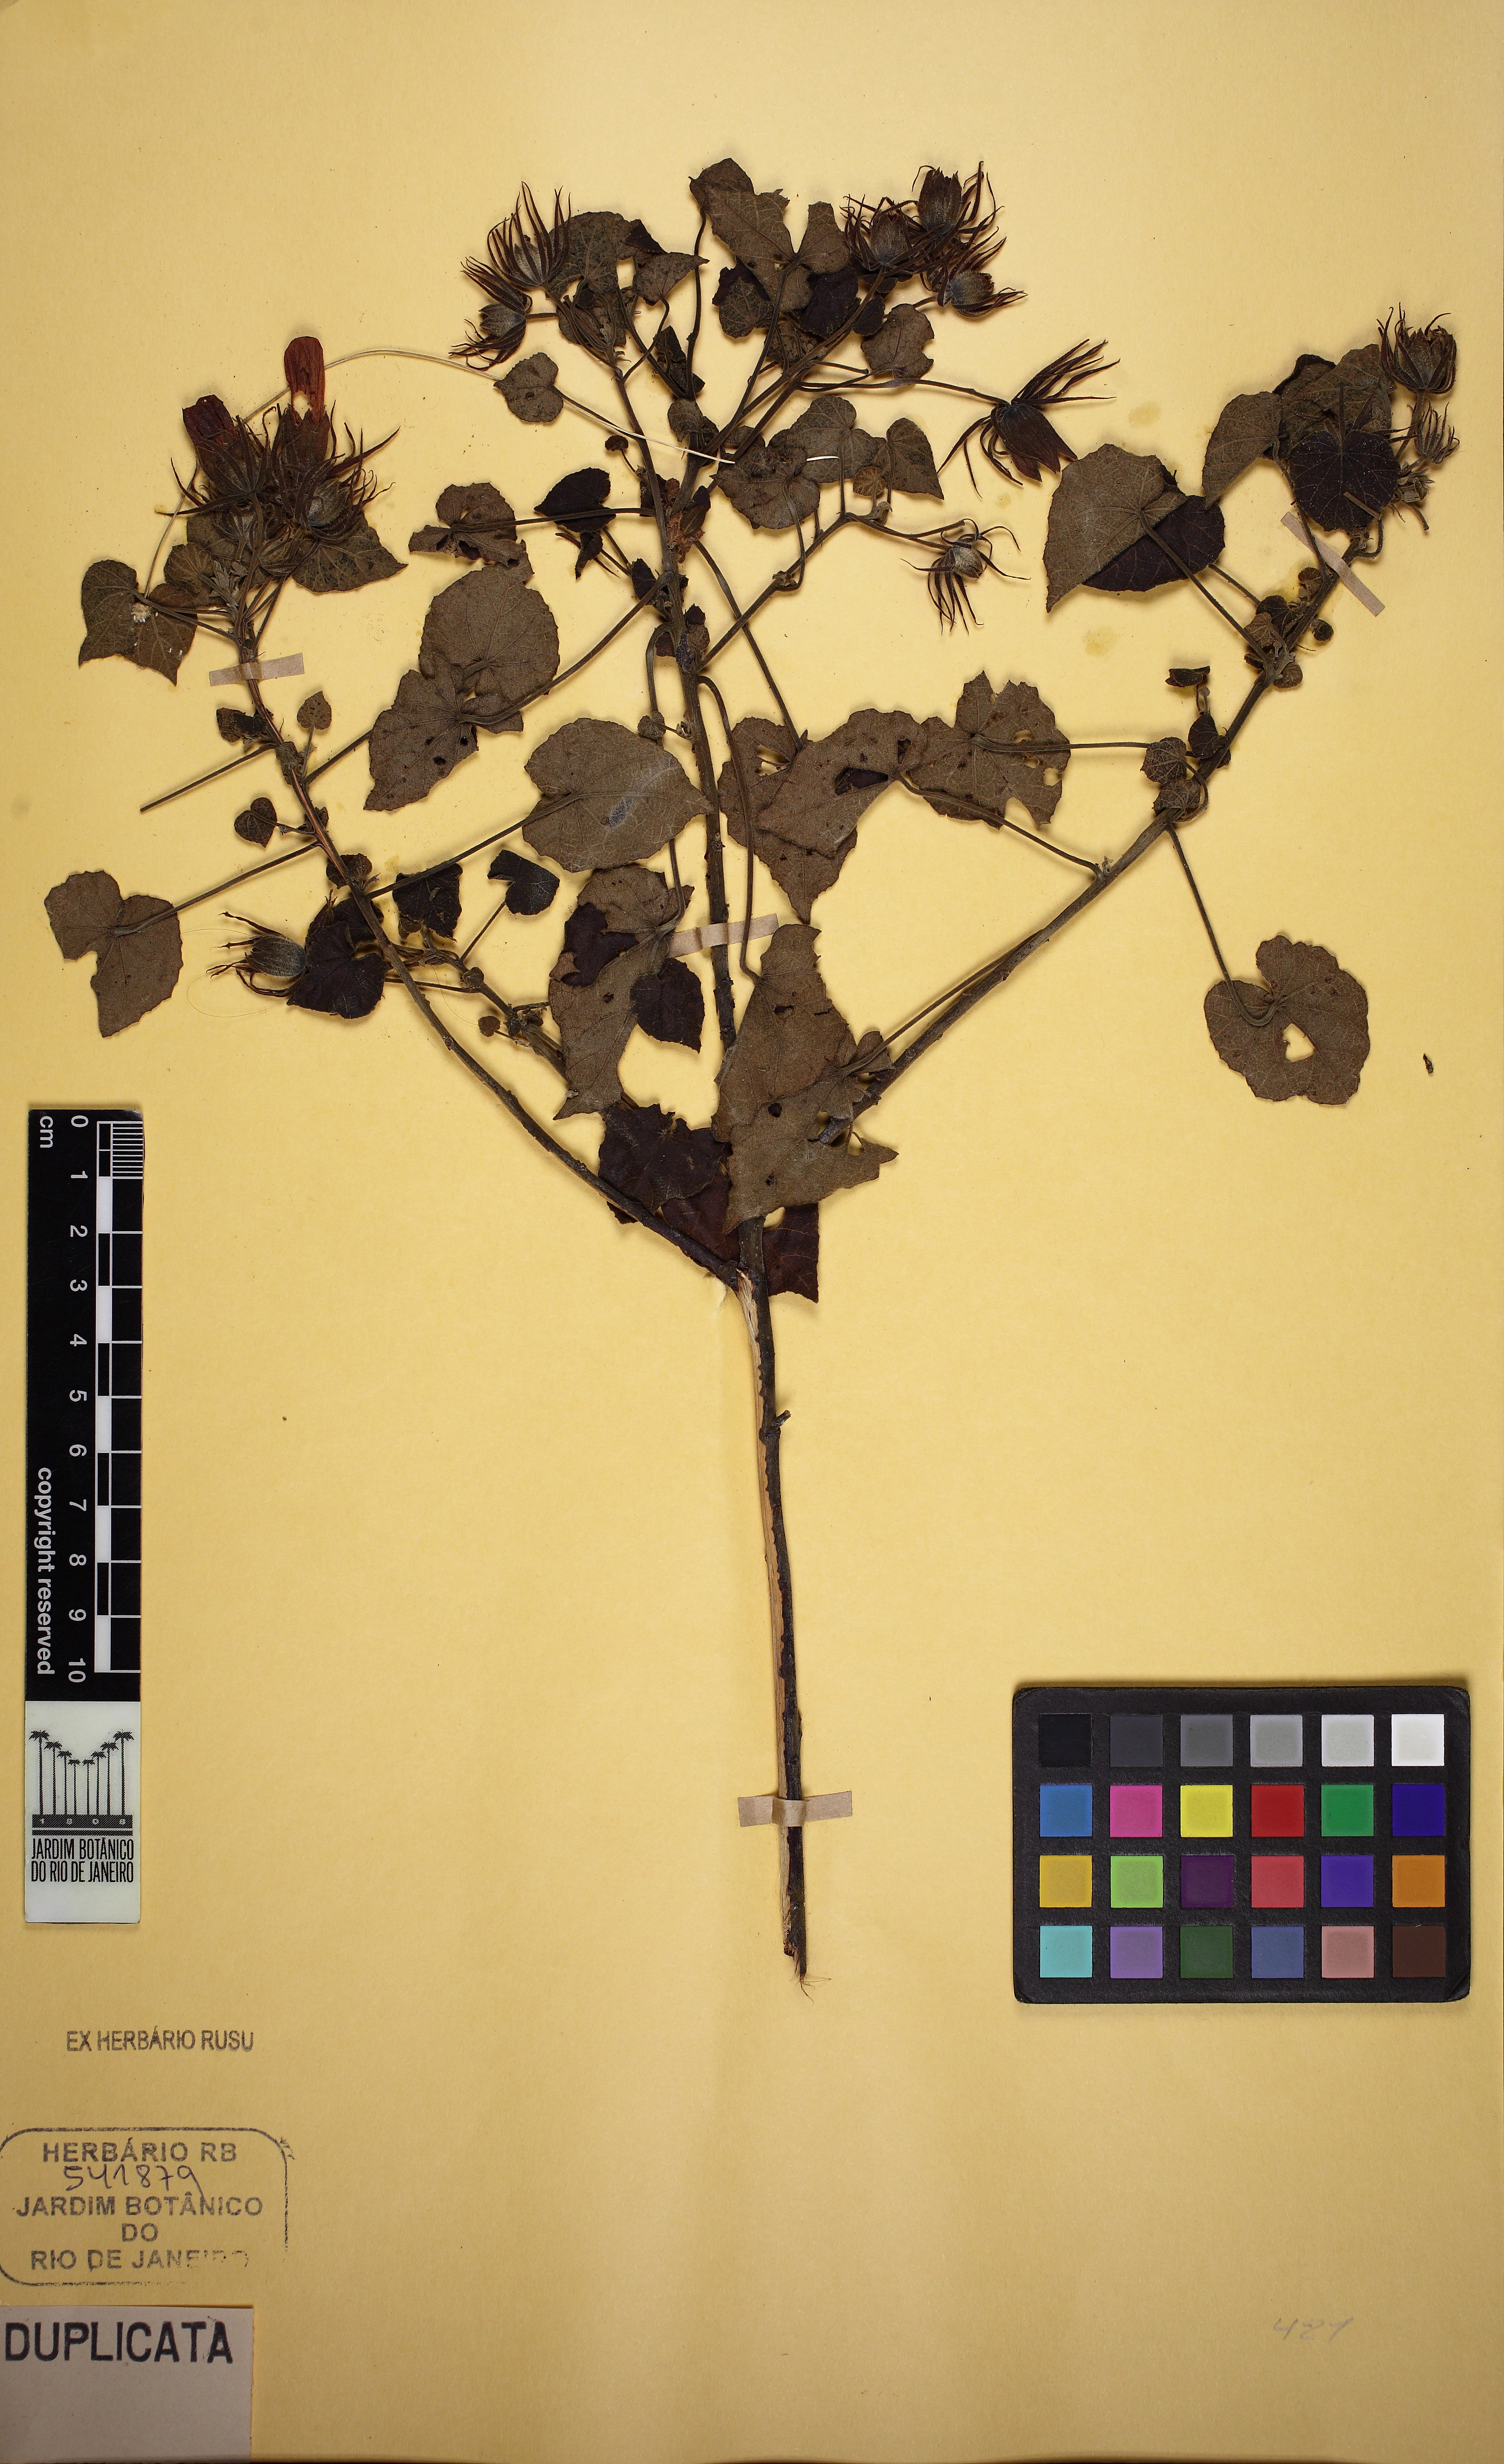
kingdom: Plantae
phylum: Tracheophyta
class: Magnoliopsida
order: Malvales
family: Malvaceae
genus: Pavonia
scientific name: Pavonia
